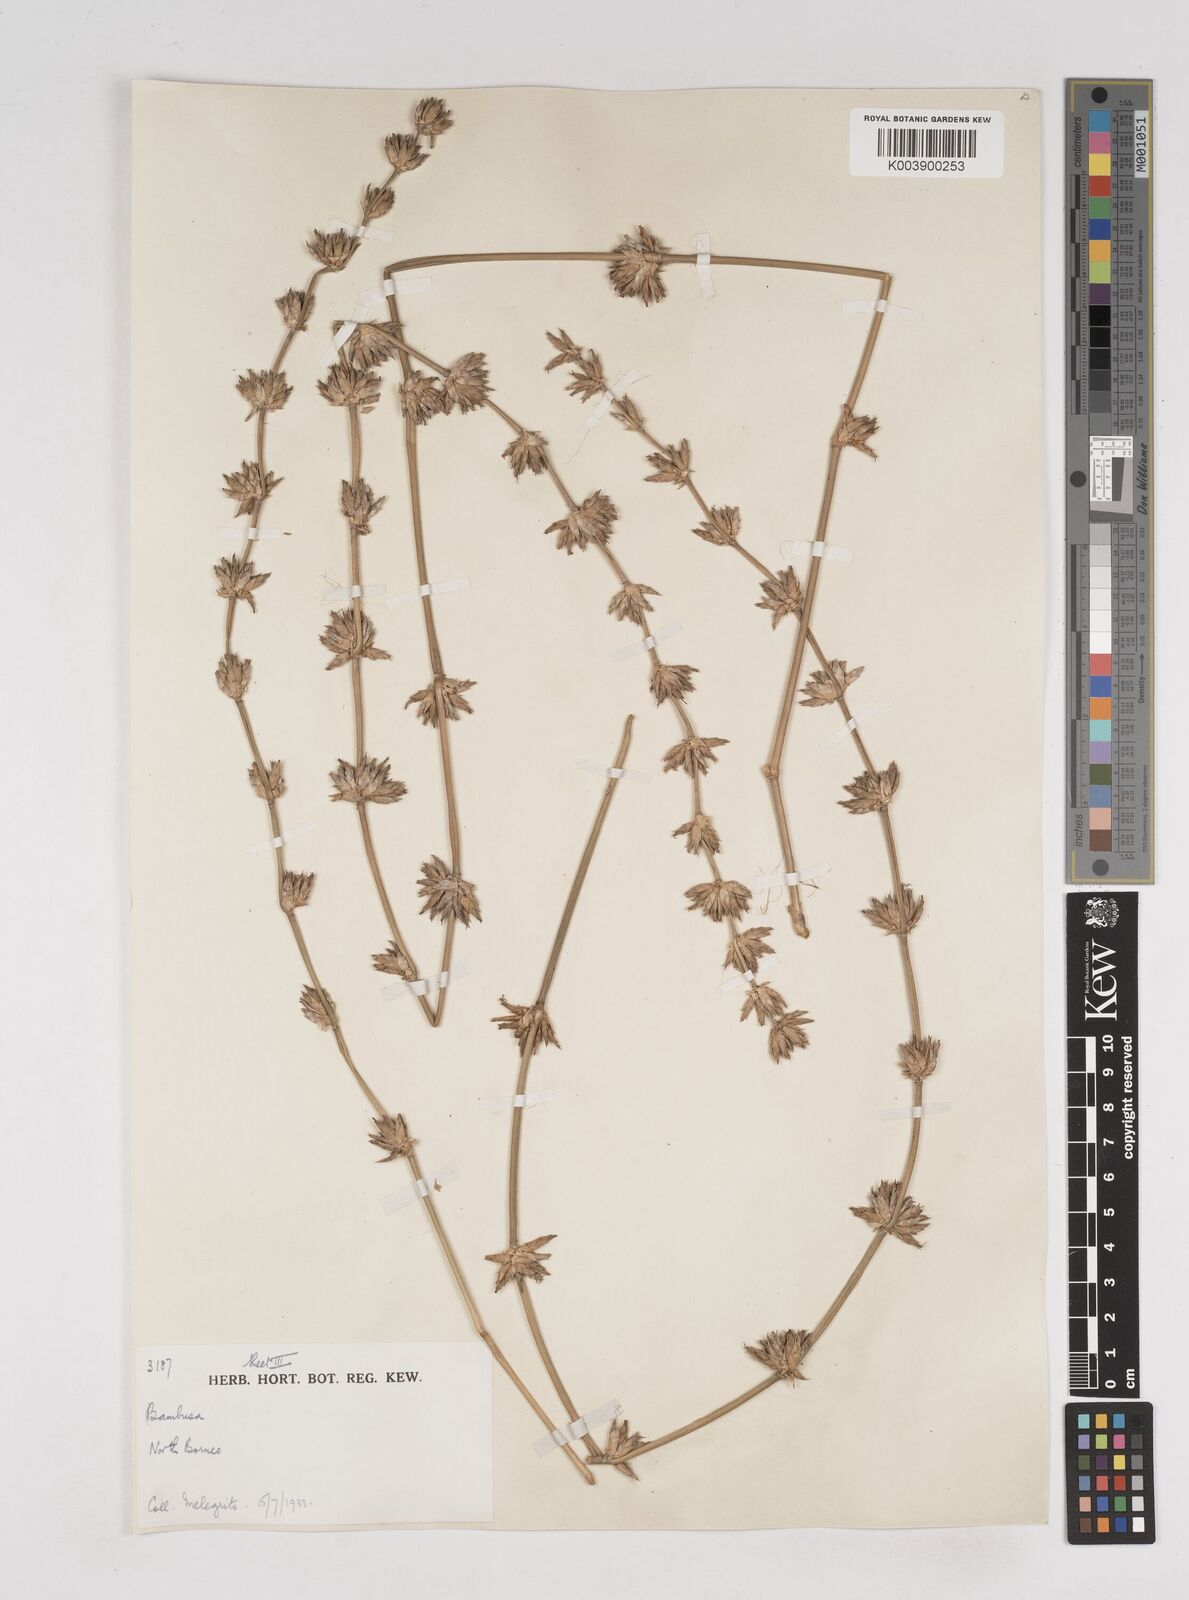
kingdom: Plantae
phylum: Tracheophyta
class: Liliopsida
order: Poales
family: Poaceae
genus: Gigantochloa
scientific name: Gigantochloa
